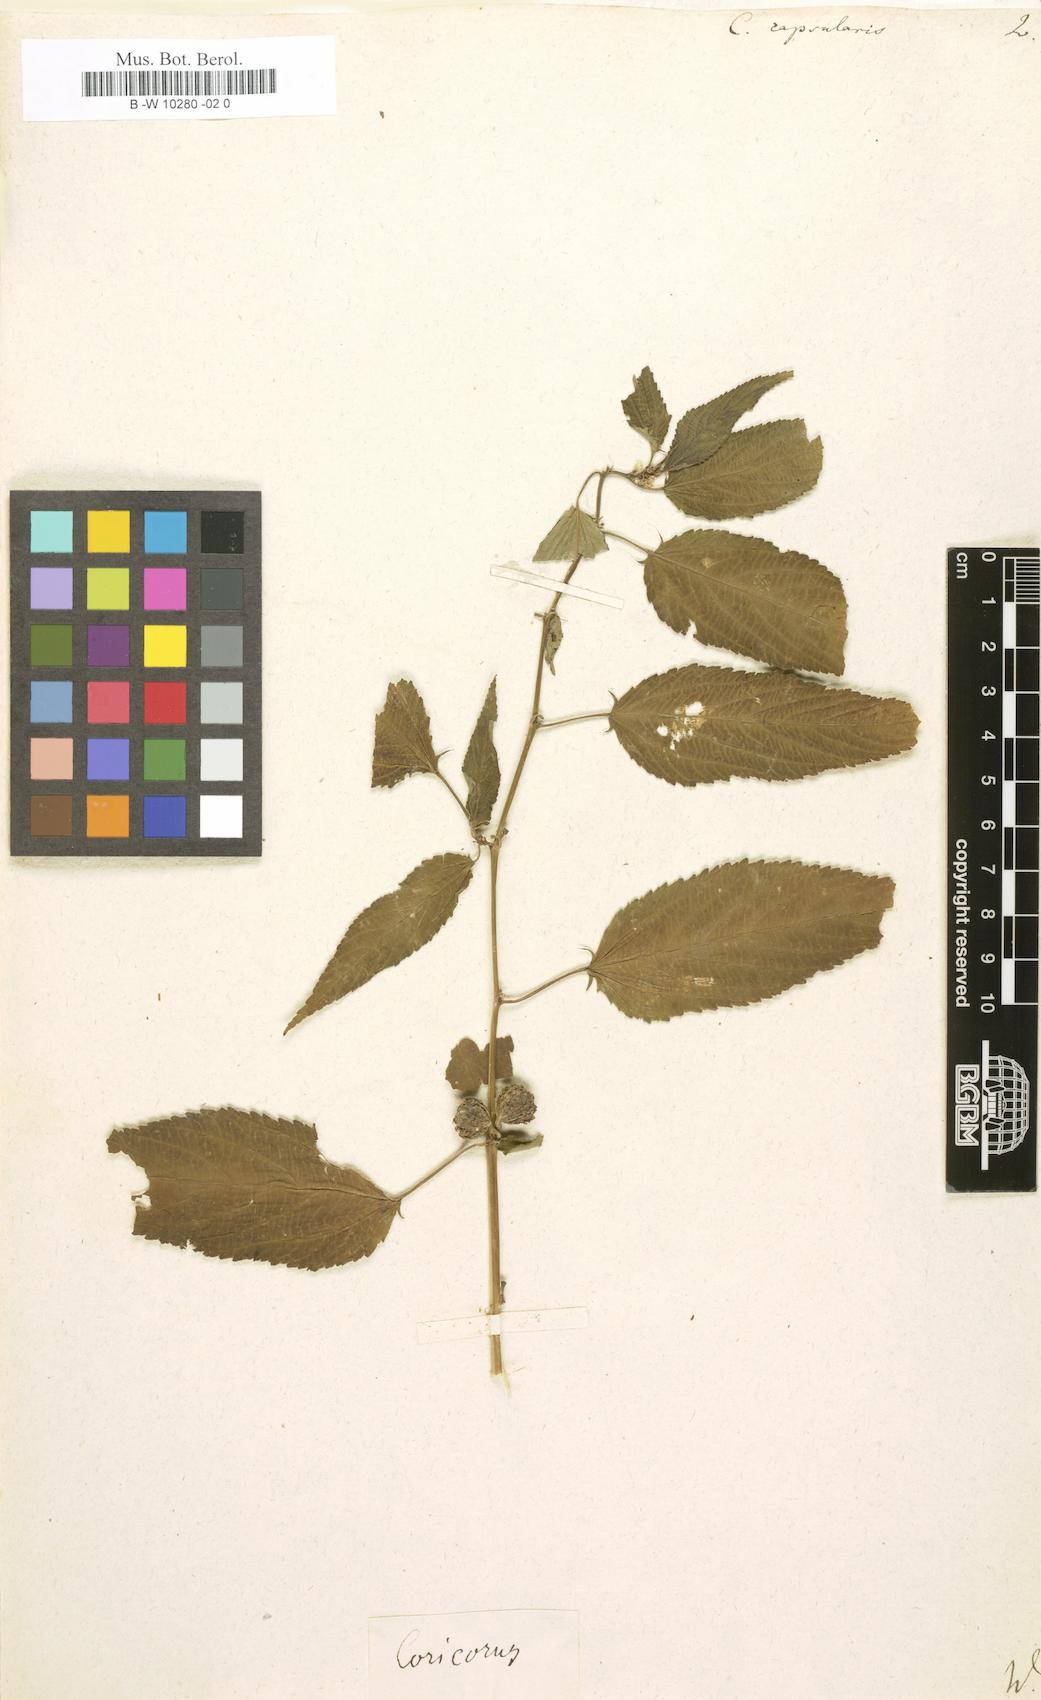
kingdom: Plantae
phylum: Tracheophyta
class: Magnoliopsida
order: Malvales
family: Malvaceae
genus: Corchorus
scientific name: Corchorus capsularis
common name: Jute
